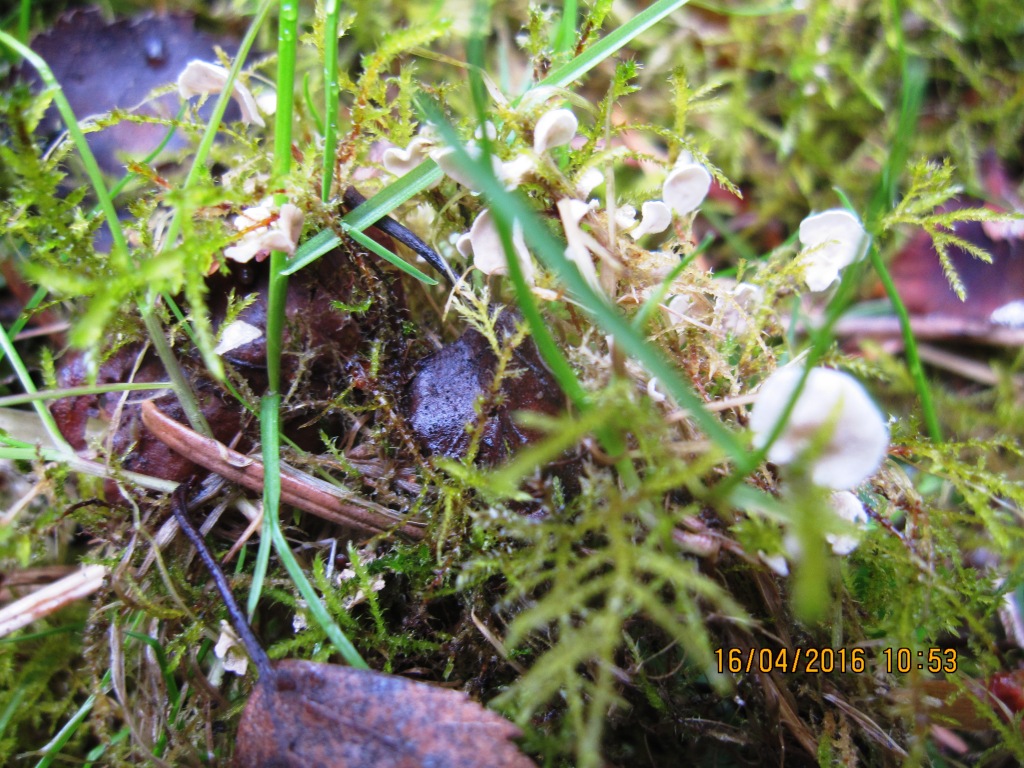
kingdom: Fungi
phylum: Basidiomycota
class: Agaricomycetes
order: Agaricales
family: Hygrophoraceae
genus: Arrhenia
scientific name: Arrhenia retiruga
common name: lille fontænehat
